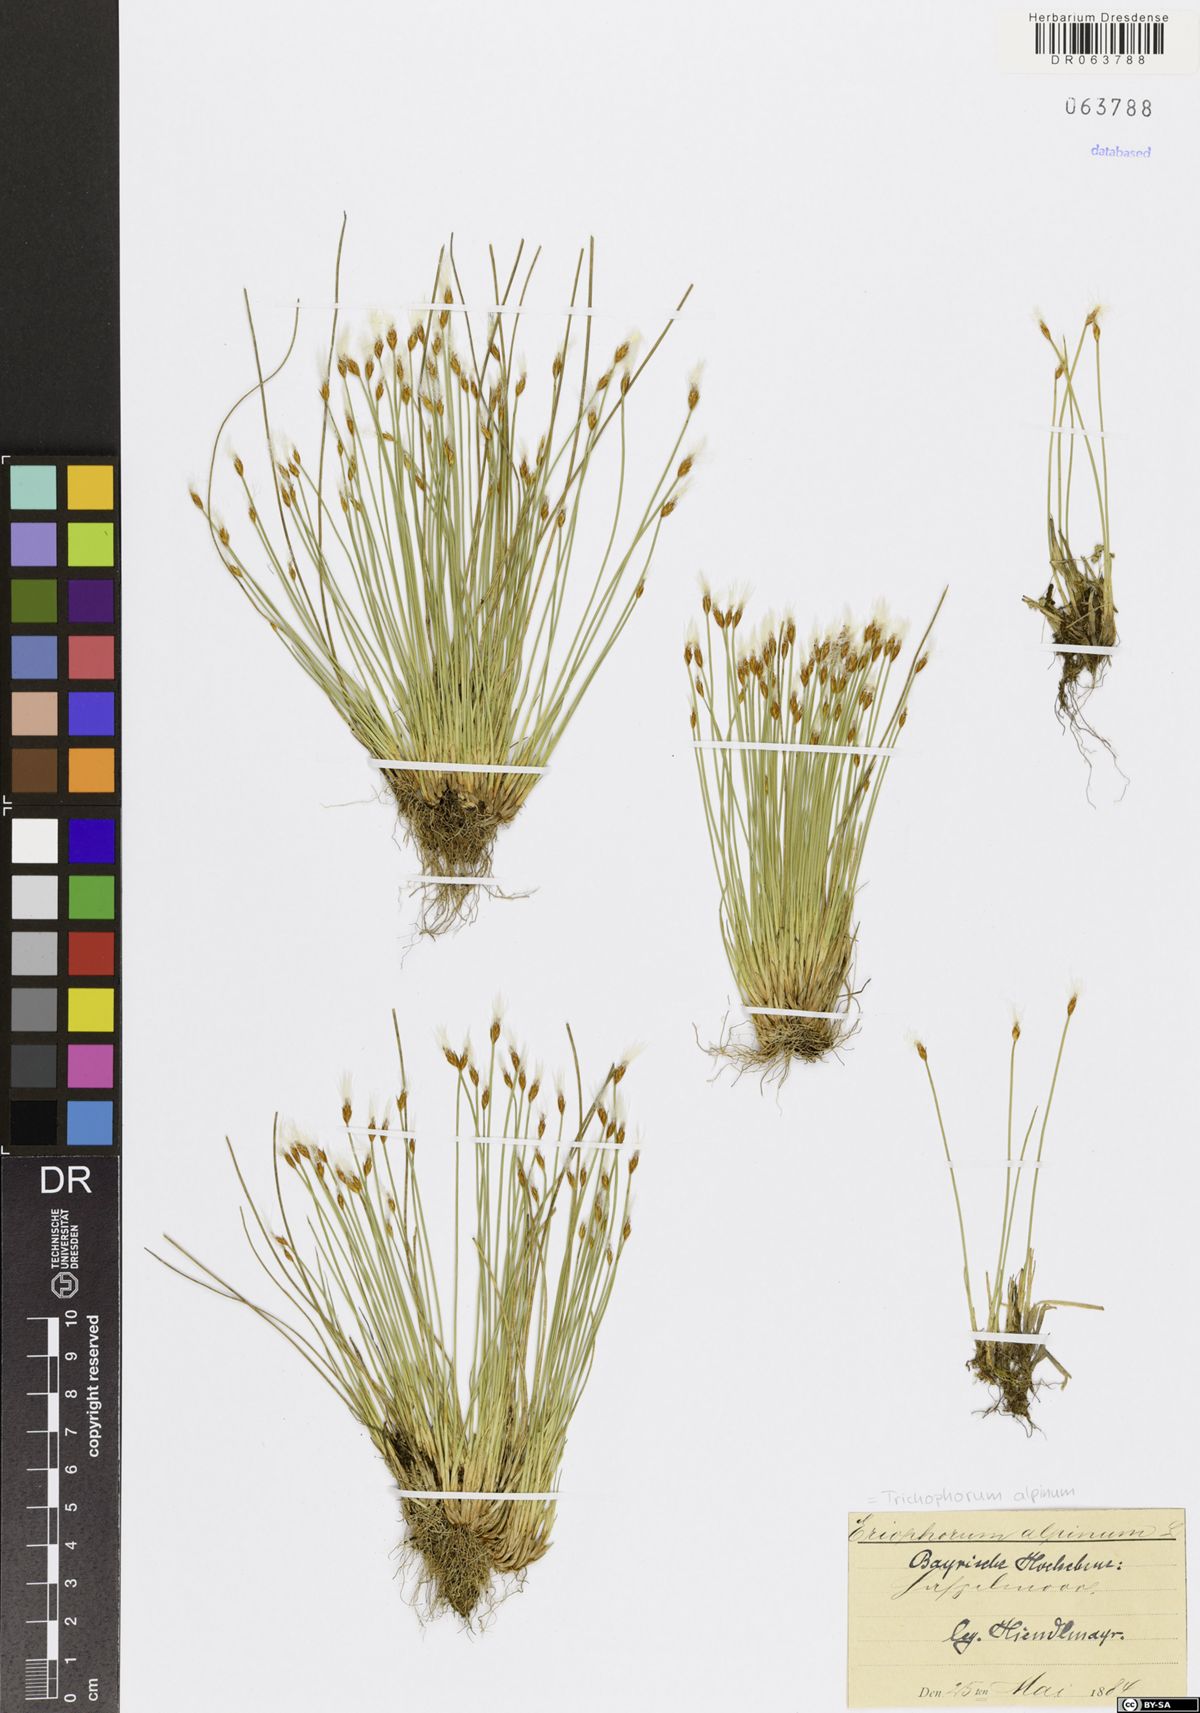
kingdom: Plantae
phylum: Tracheophyta
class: Liliopsida
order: Poales
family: Cyperaceae
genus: Trichophorum
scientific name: Trichophorum alpinum
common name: Alpine bulrush
